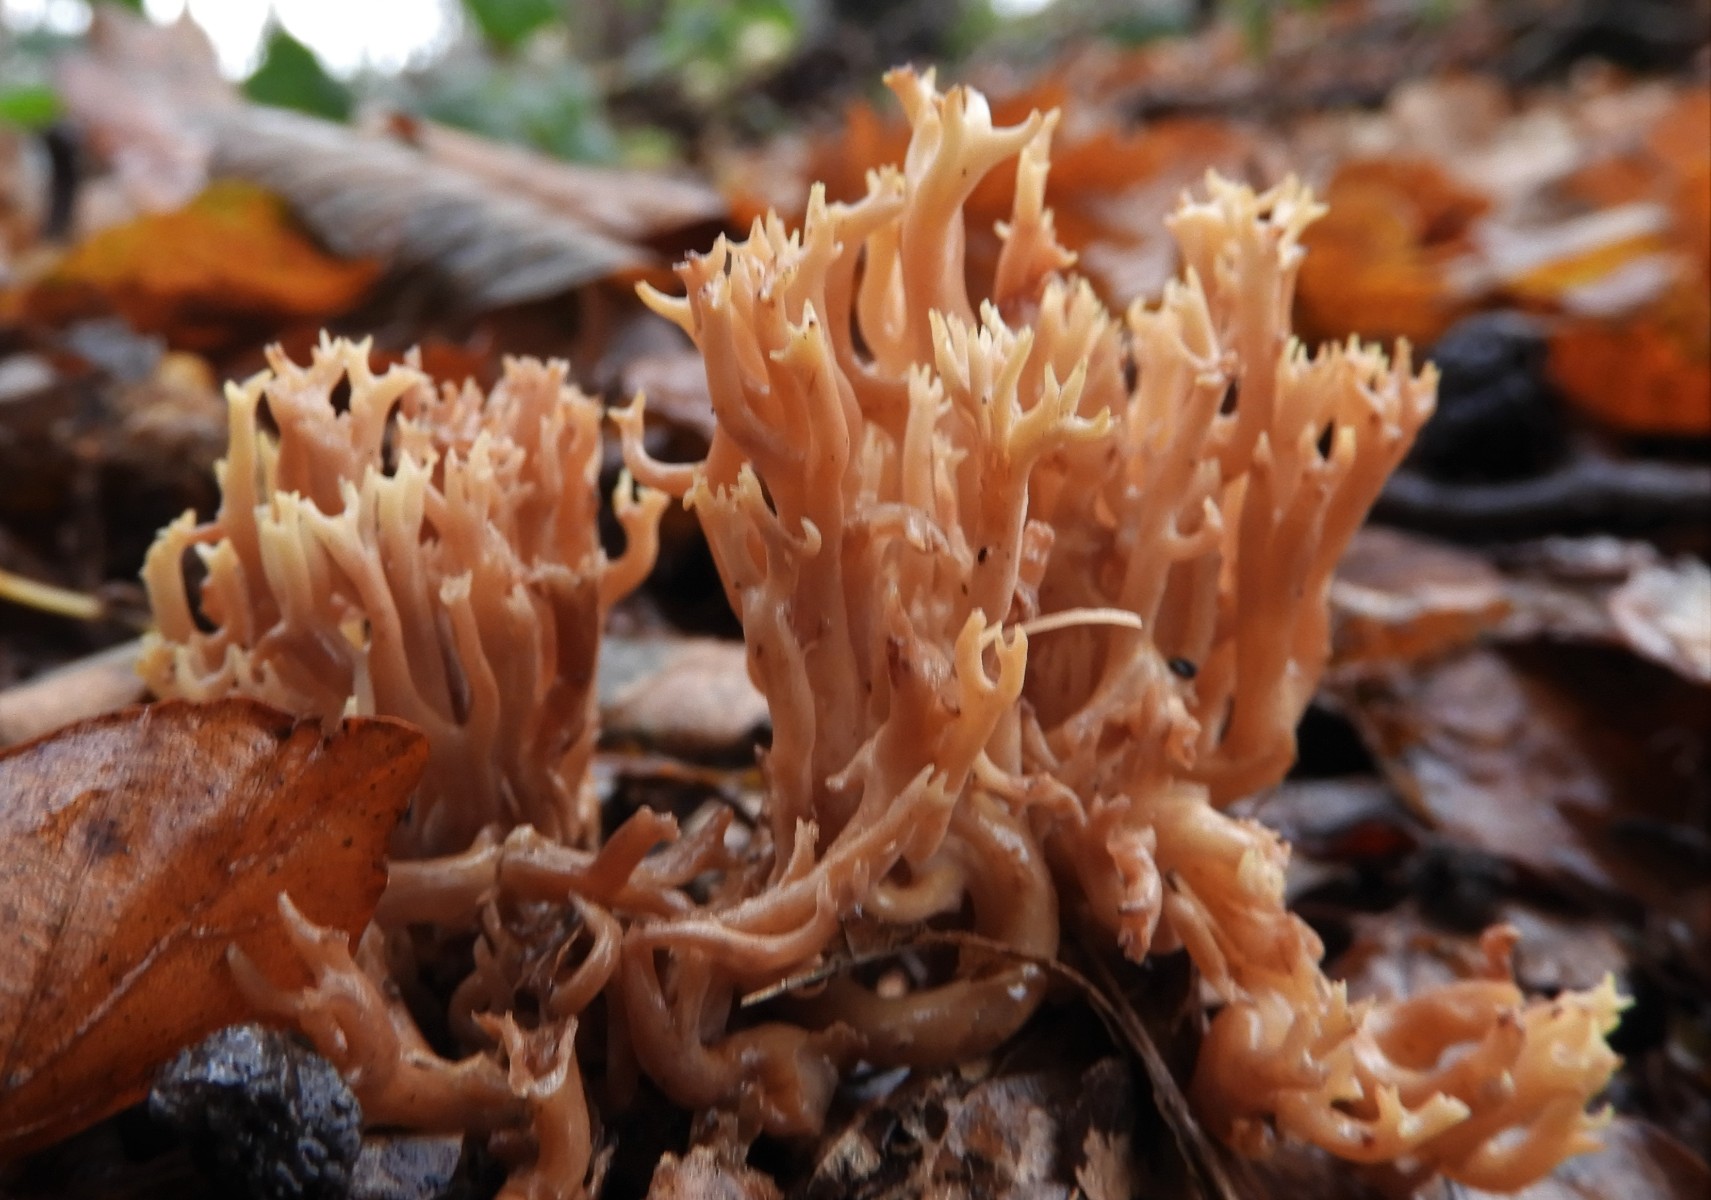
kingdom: Fungi
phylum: Basidiomycota
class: Agaricomycetes
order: Gomphales
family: Gomphaceae
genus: Ramaria
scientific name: Ramaria stricta
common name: rank koralsvamp
